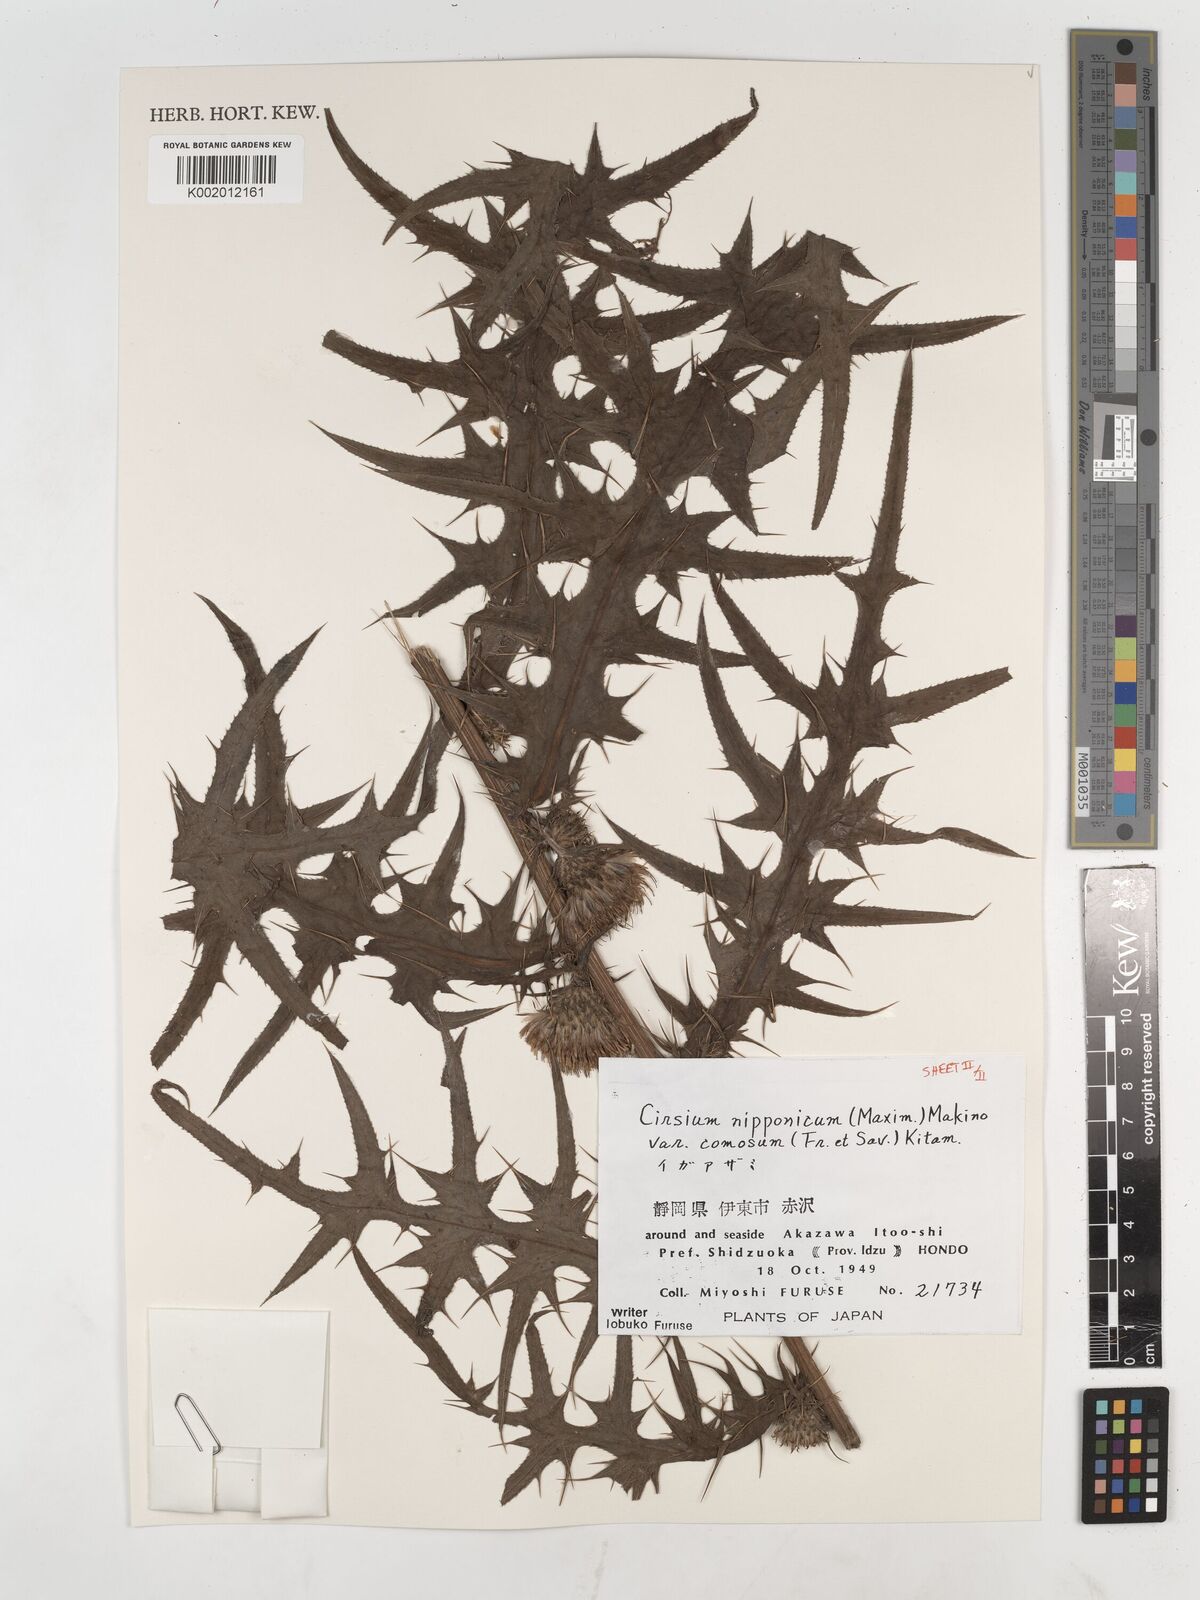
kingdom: Plantae
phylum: Tracheophyta
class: Magnoliopsida
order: Asterales
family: Asteraceae
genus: Cirsium
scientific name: Cirsium nipponicum
